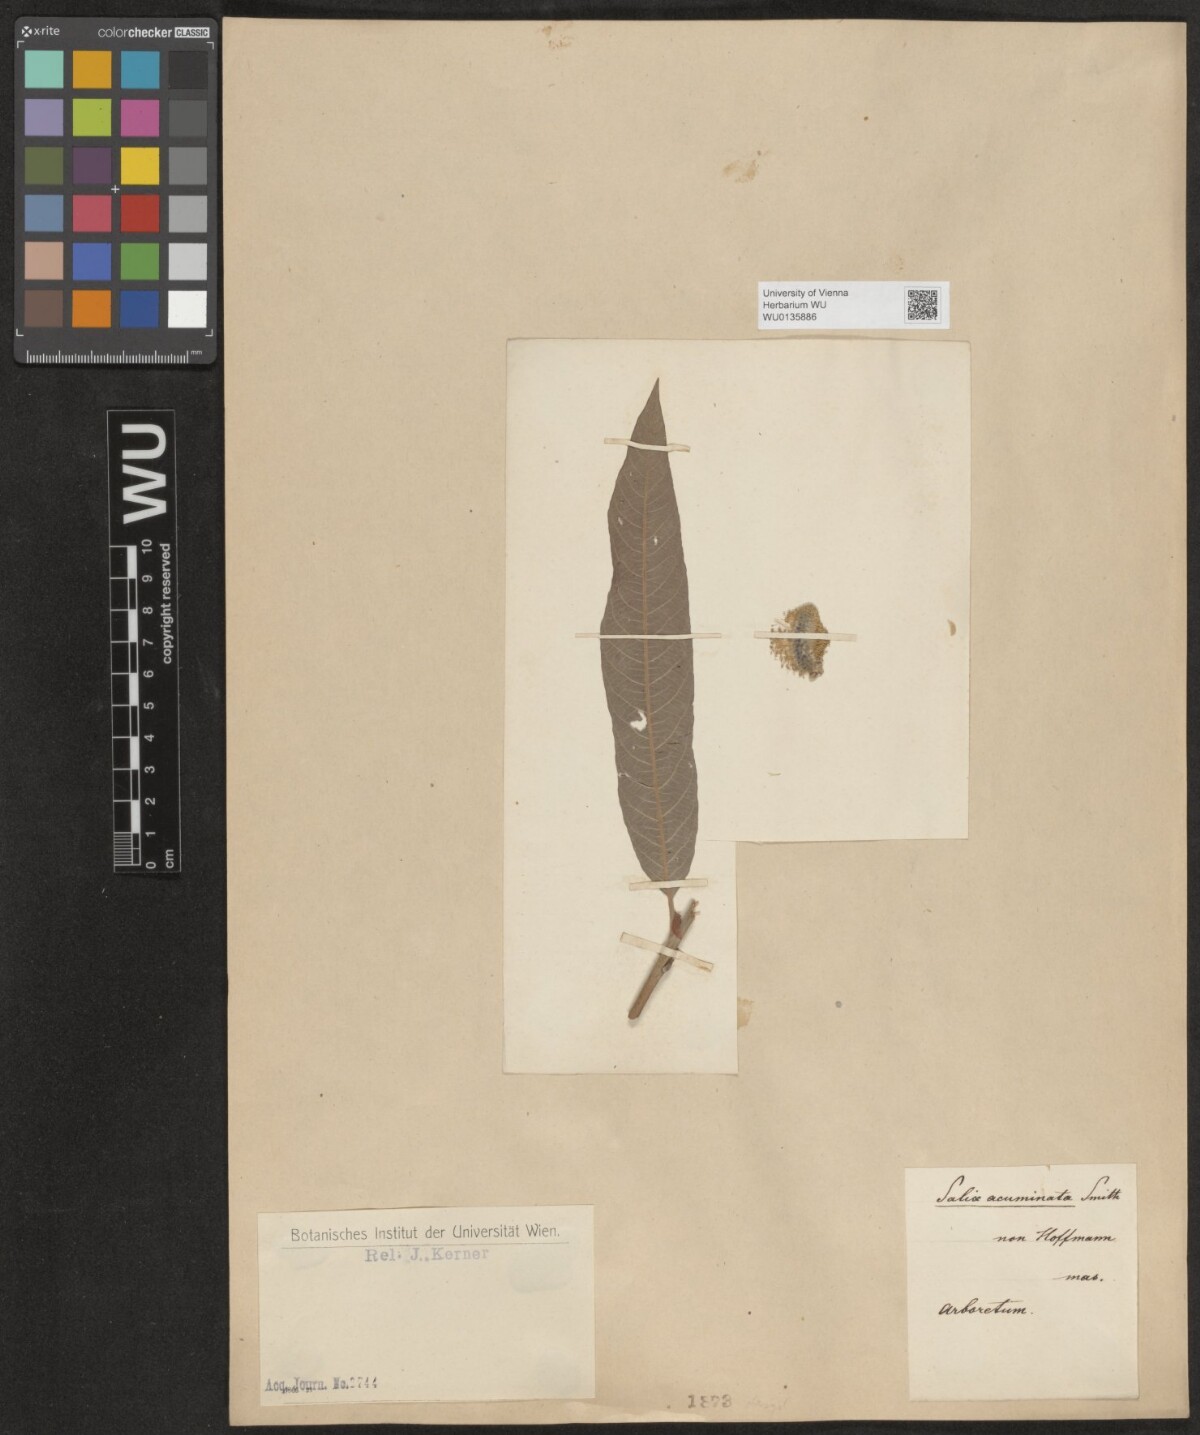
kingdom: Plantae
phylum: Tracheophyta
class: Magnoliopsida
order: Malpighiales
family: Salicaceae
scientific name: Salicaceae
